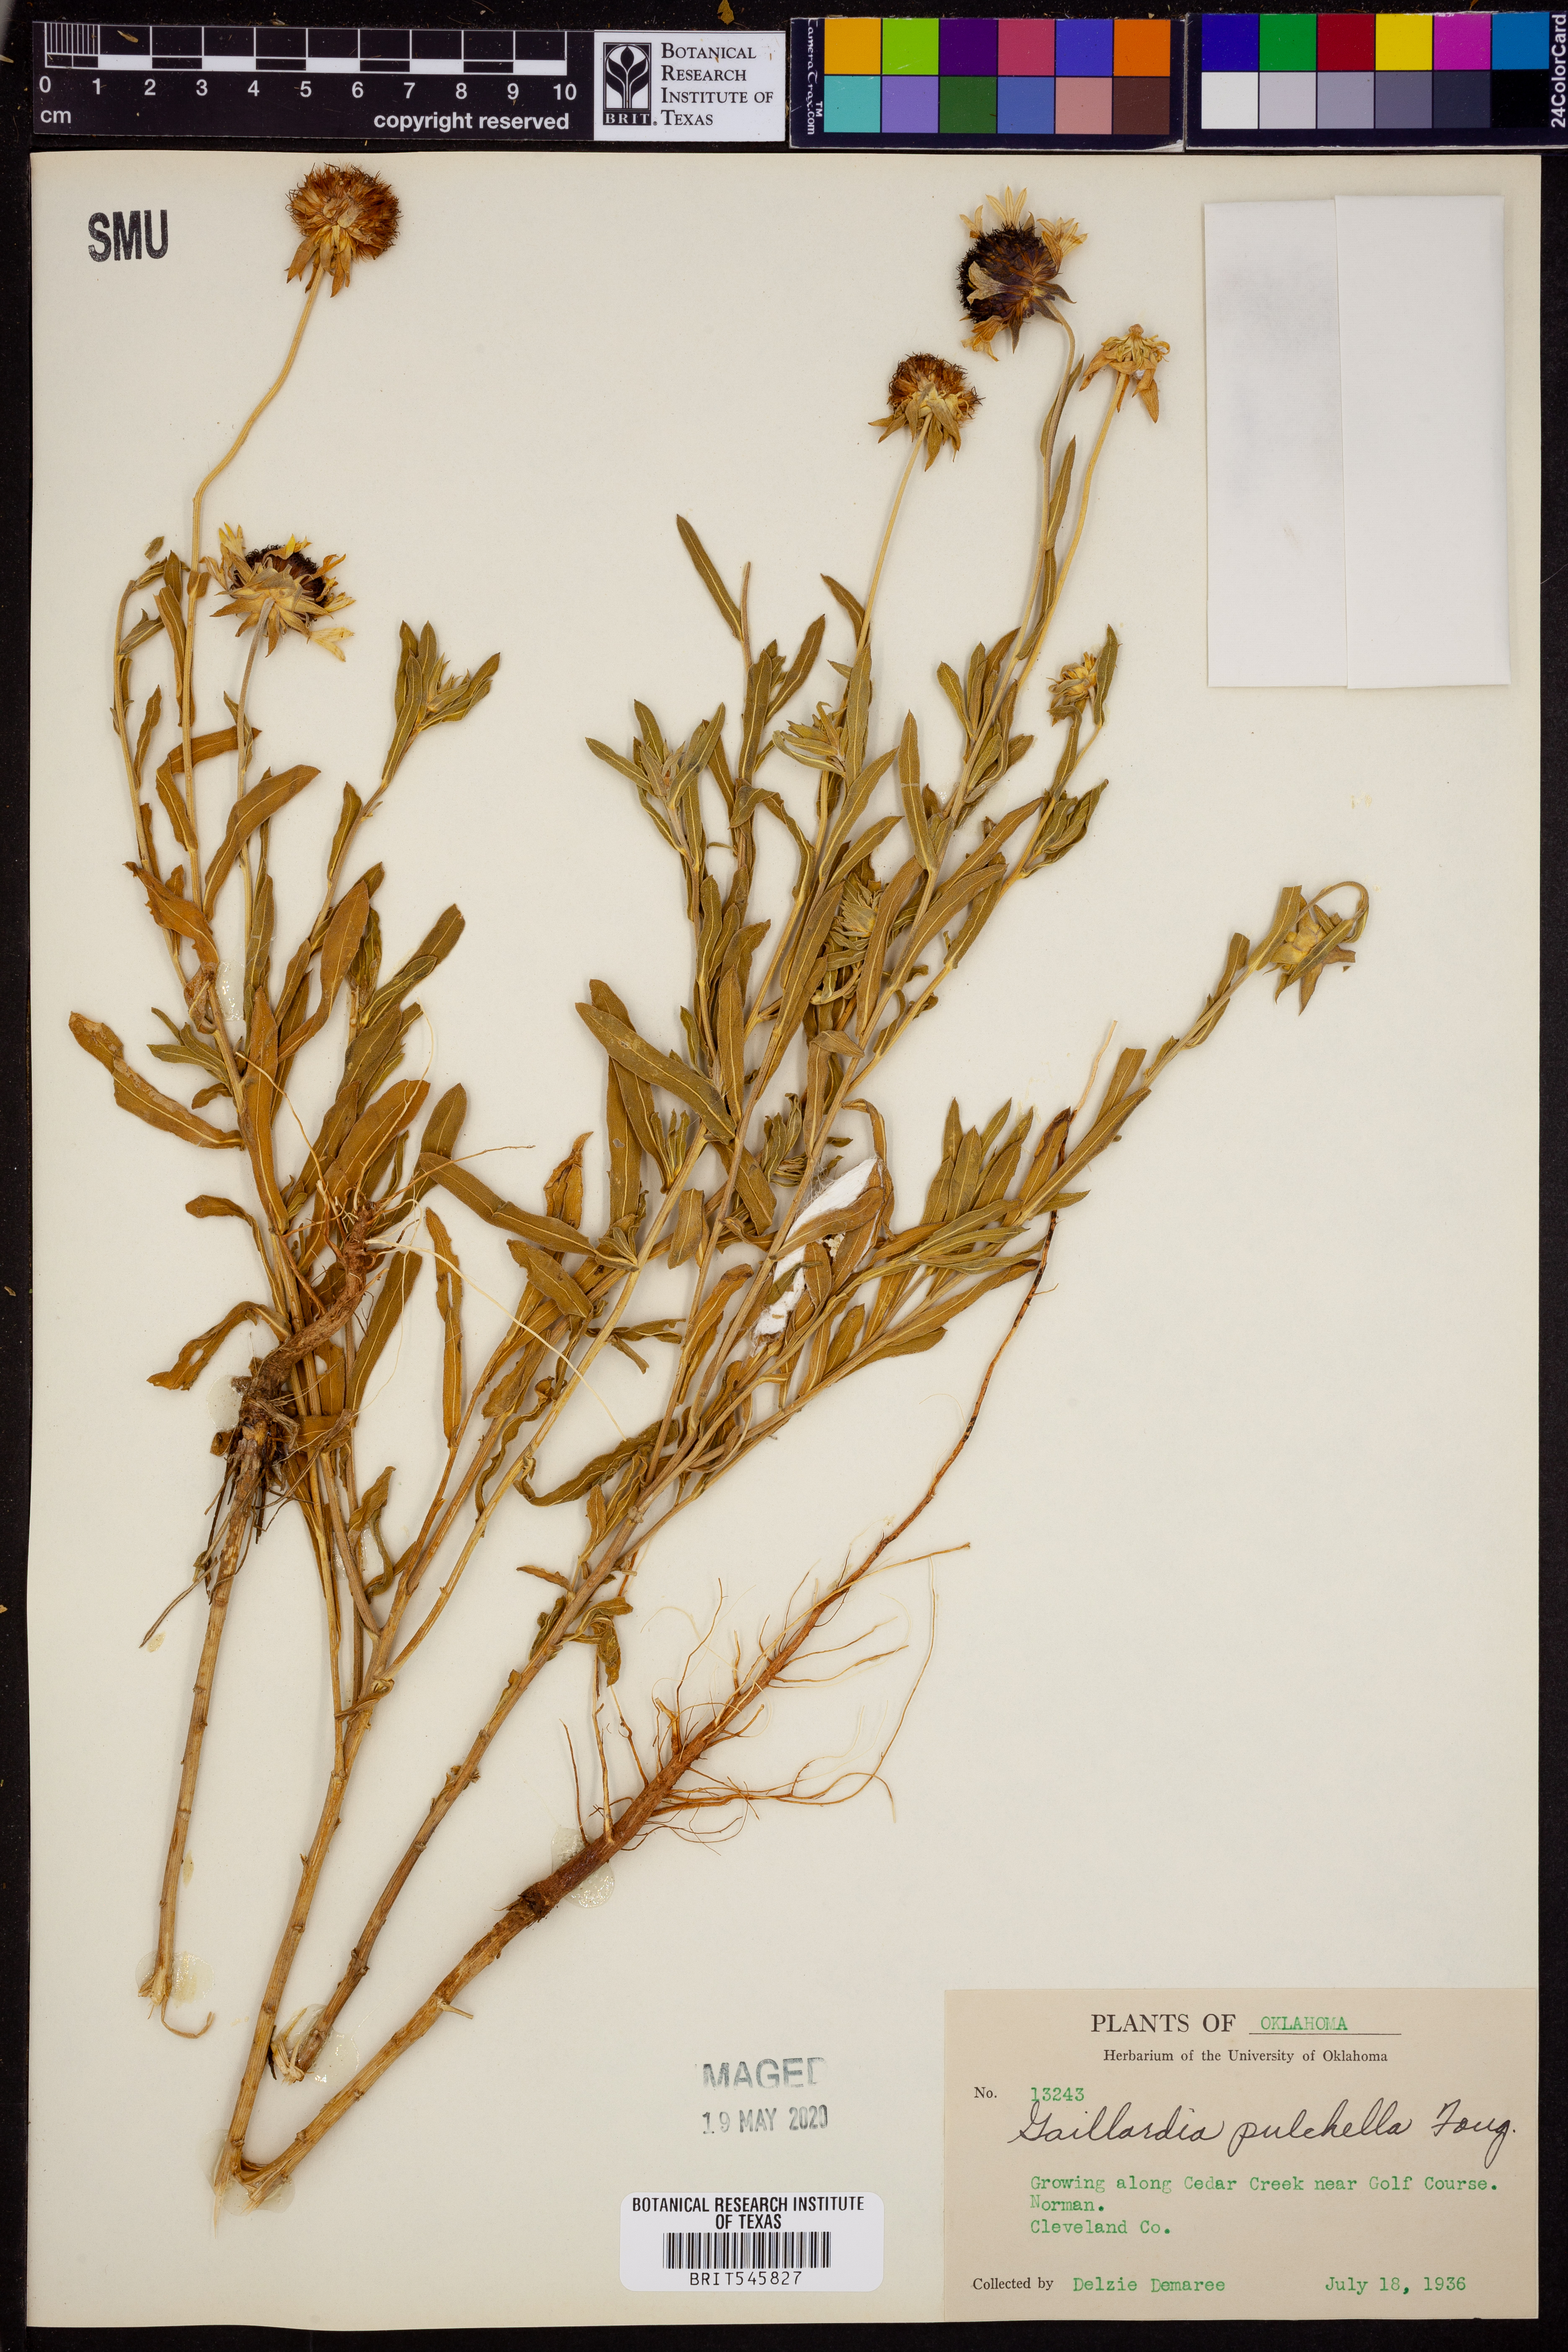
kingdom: Plantae
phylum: Tracheophyta
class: Magnoliopsida
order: Asterales
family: Asteraceae
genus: Gaillardia
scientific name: Gaillardia pulchella
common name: Firewheel
